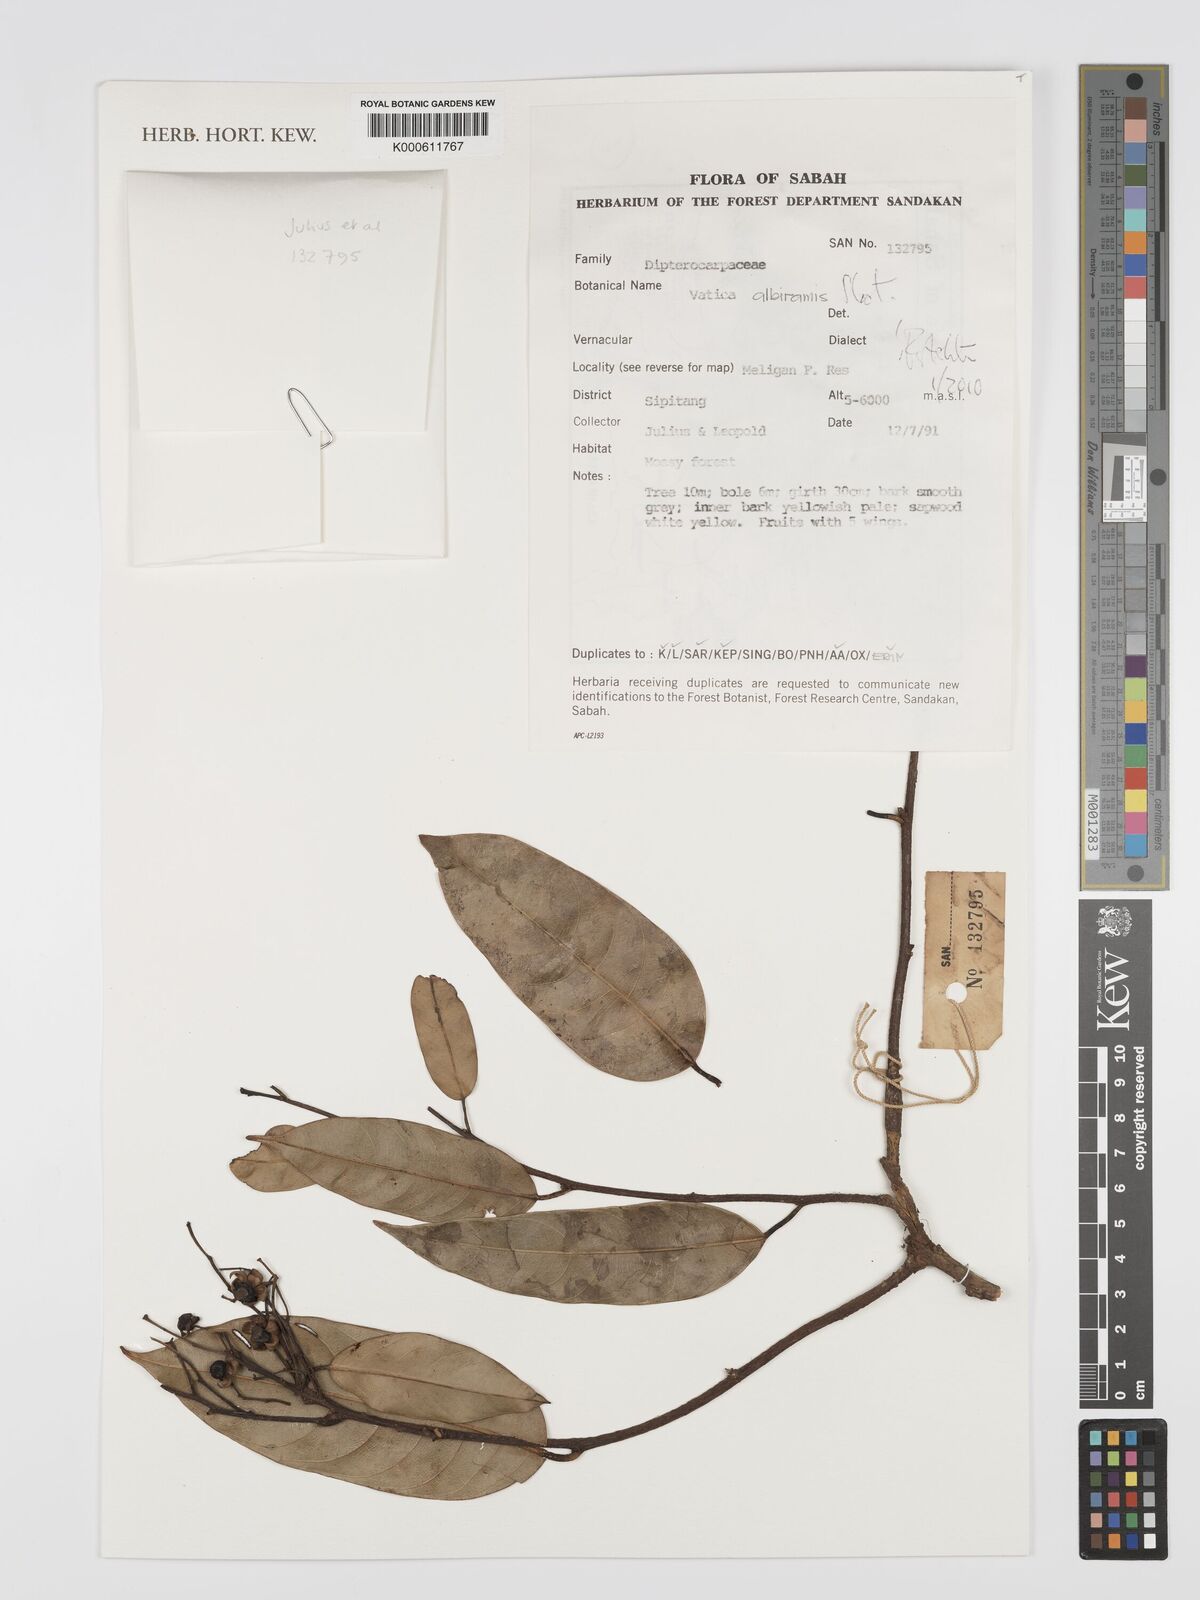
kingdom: Plantae
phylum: Tracheophyta
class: Magnoliopsida
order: Malvales
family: Dipterocarpaceae
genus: Vatica
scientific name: Vatica albiramis
